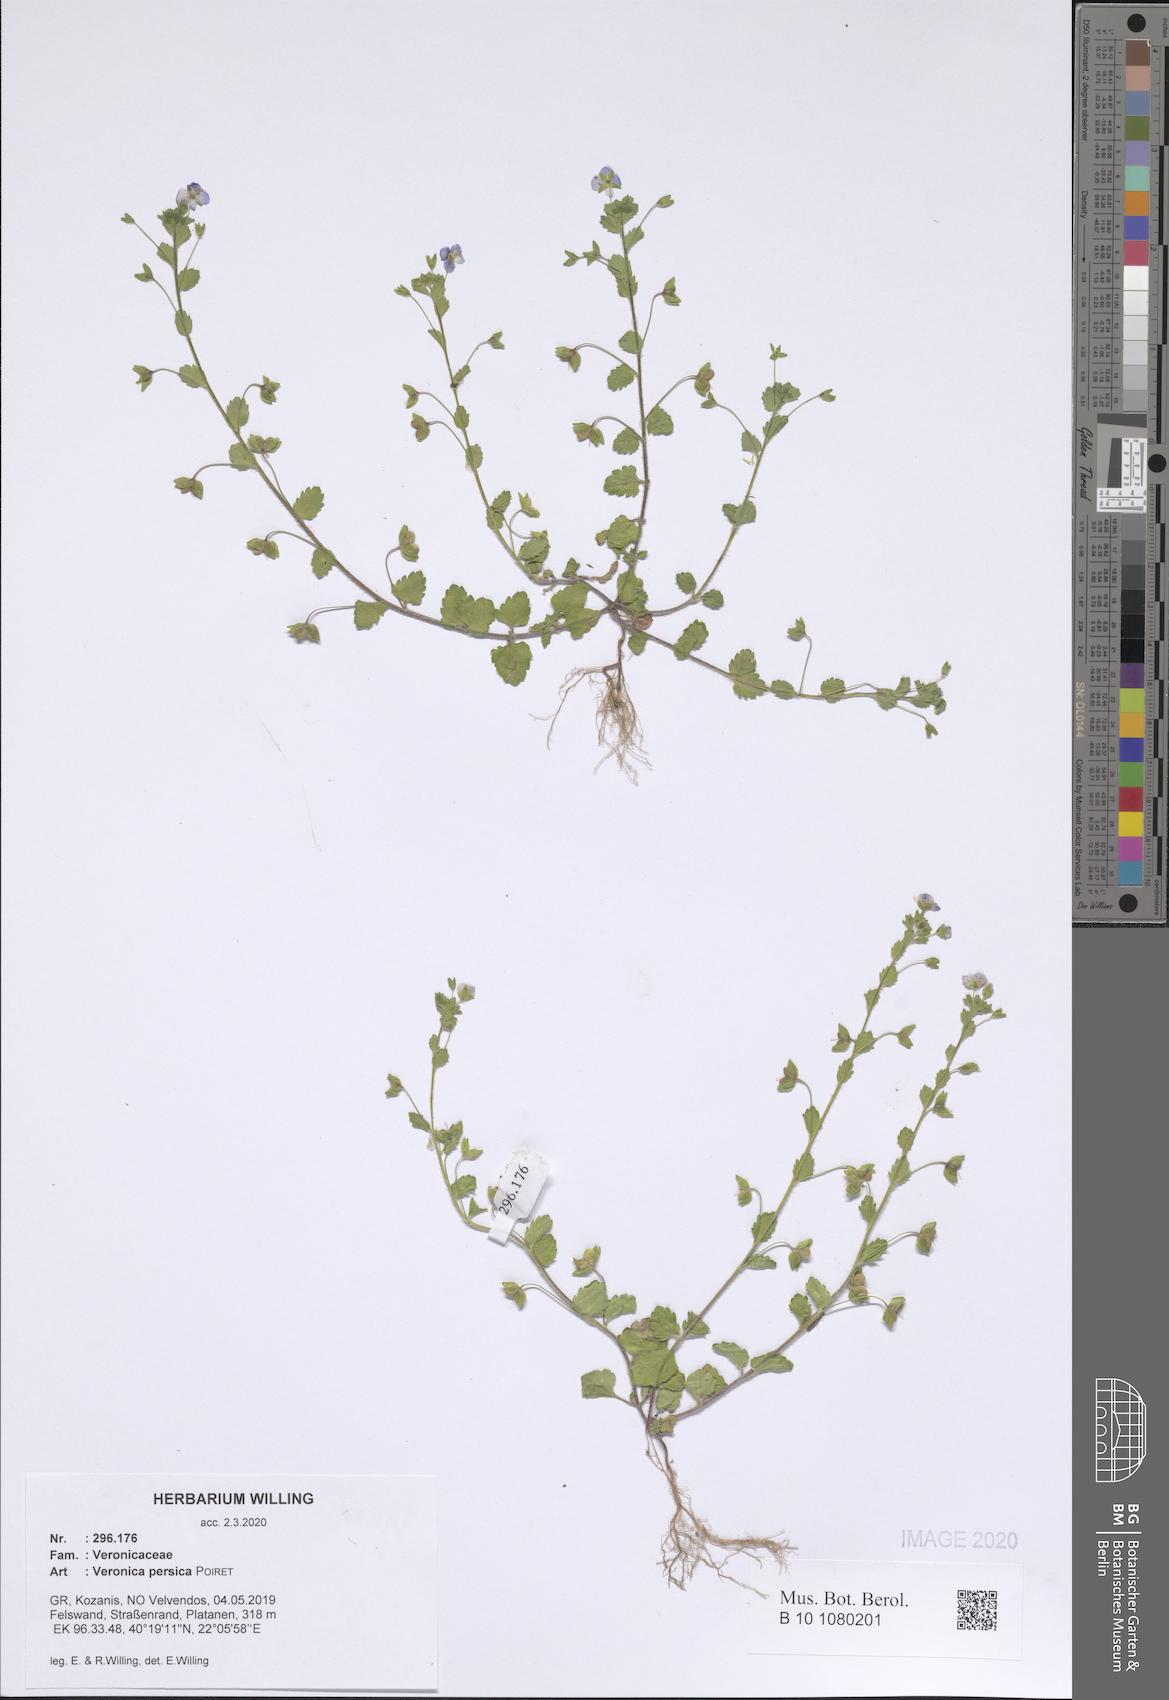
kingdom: Plantae
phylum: Tracheophyta
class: Magnoliopsida
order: Lamiales
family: Plantaginaceae
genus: Veronica
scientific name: Veronica persica
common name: Common field-speedwell
